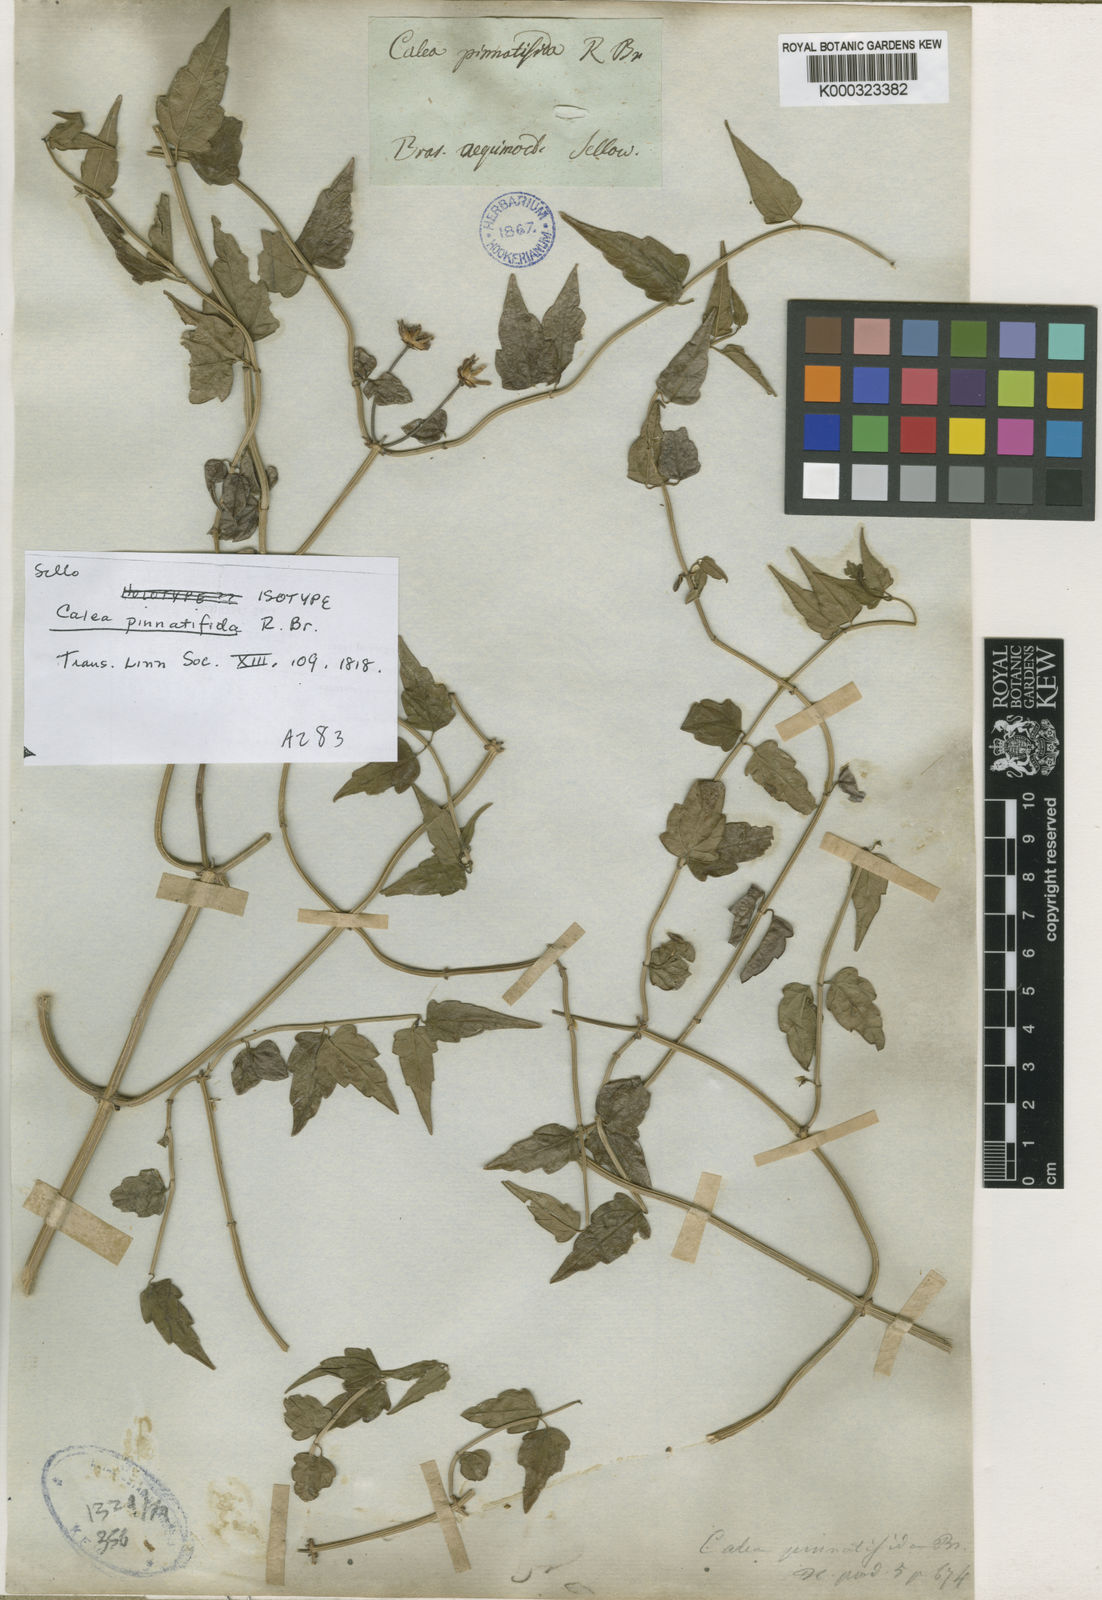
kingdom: Plantae
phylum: Tracheophyta
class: Magnoliopsida
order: Asterales
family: Asteraceae
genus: Calea
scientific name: Calea pinnatifida
